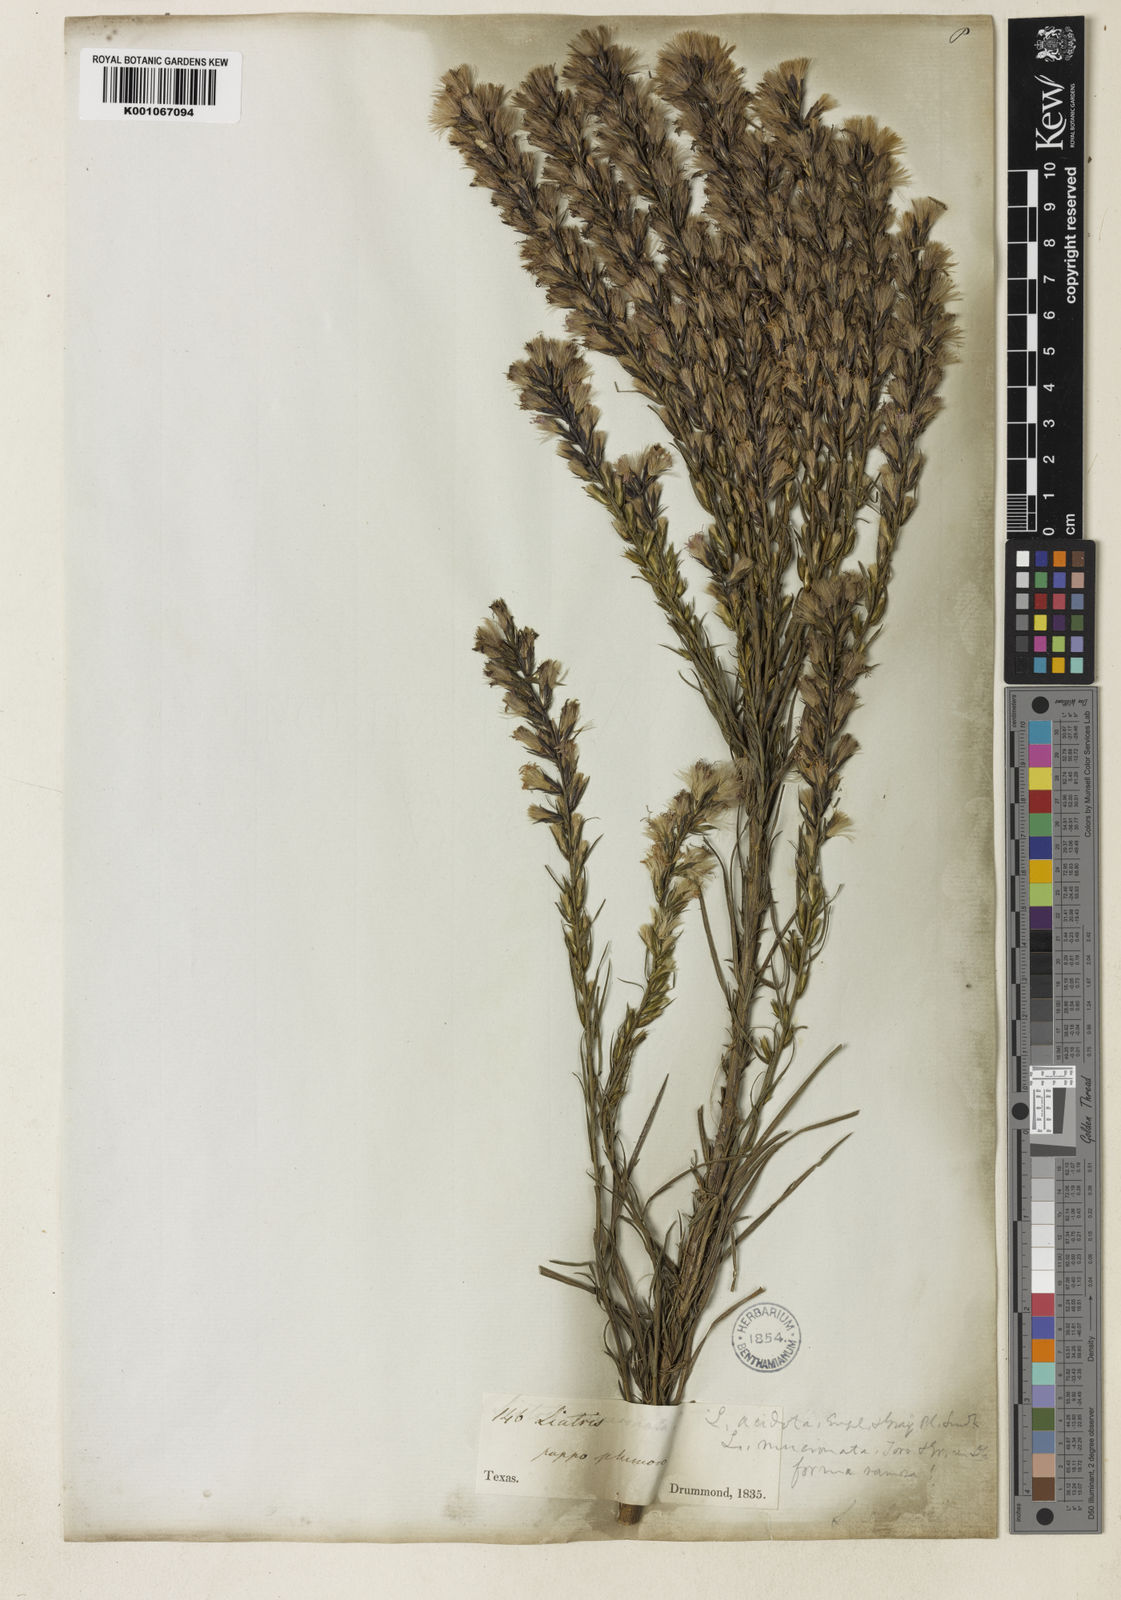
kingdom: Plantae
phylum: Tracheophyta
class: Magnoliopsida
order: Asterales
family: Asteraceae
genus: Liatris
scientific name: Liatris acidota
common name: Gulf coast gayfeather
